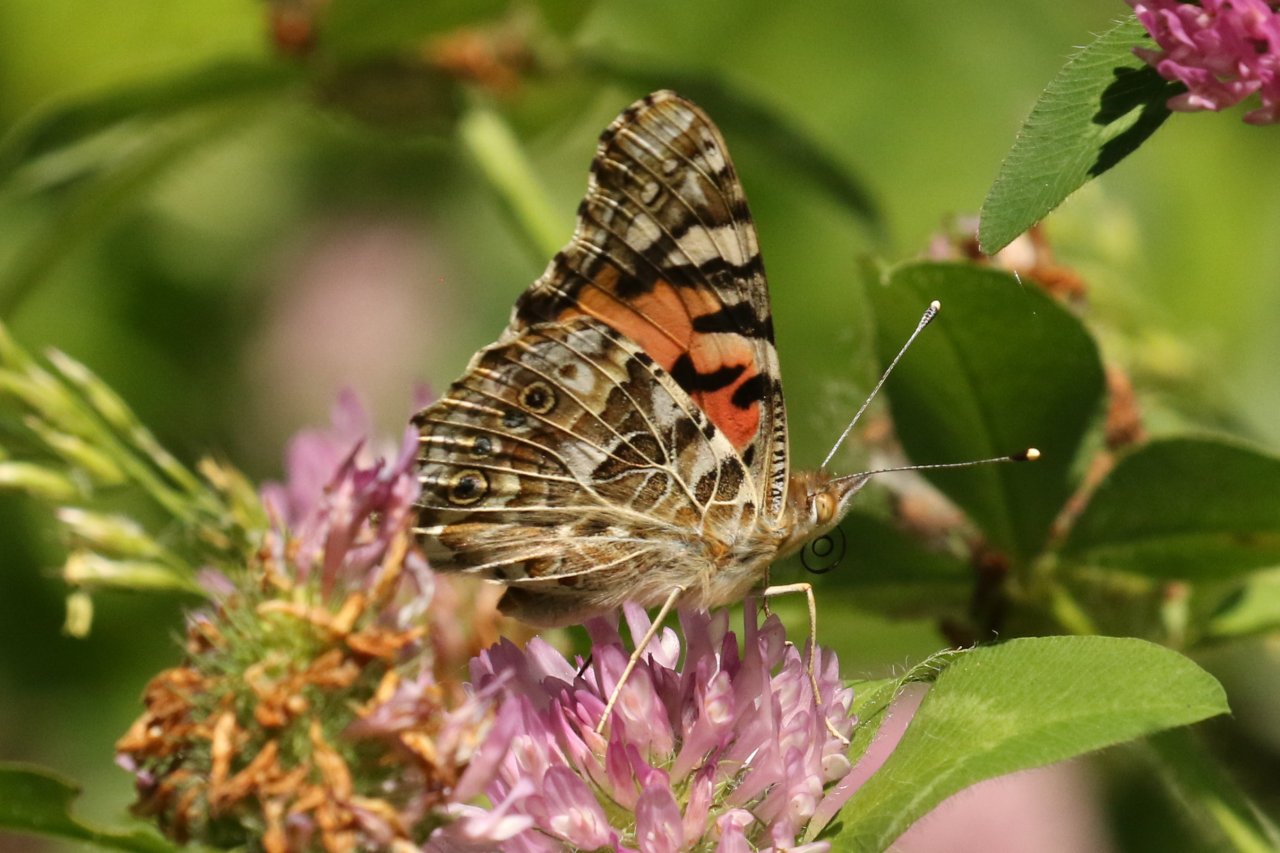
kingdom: Animalia
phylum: Arthropoda
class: Insecta
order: Lepidoptera
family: Nymphalidae
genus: Vanessa
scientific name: Vanessa cardui
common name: Painted Lady
